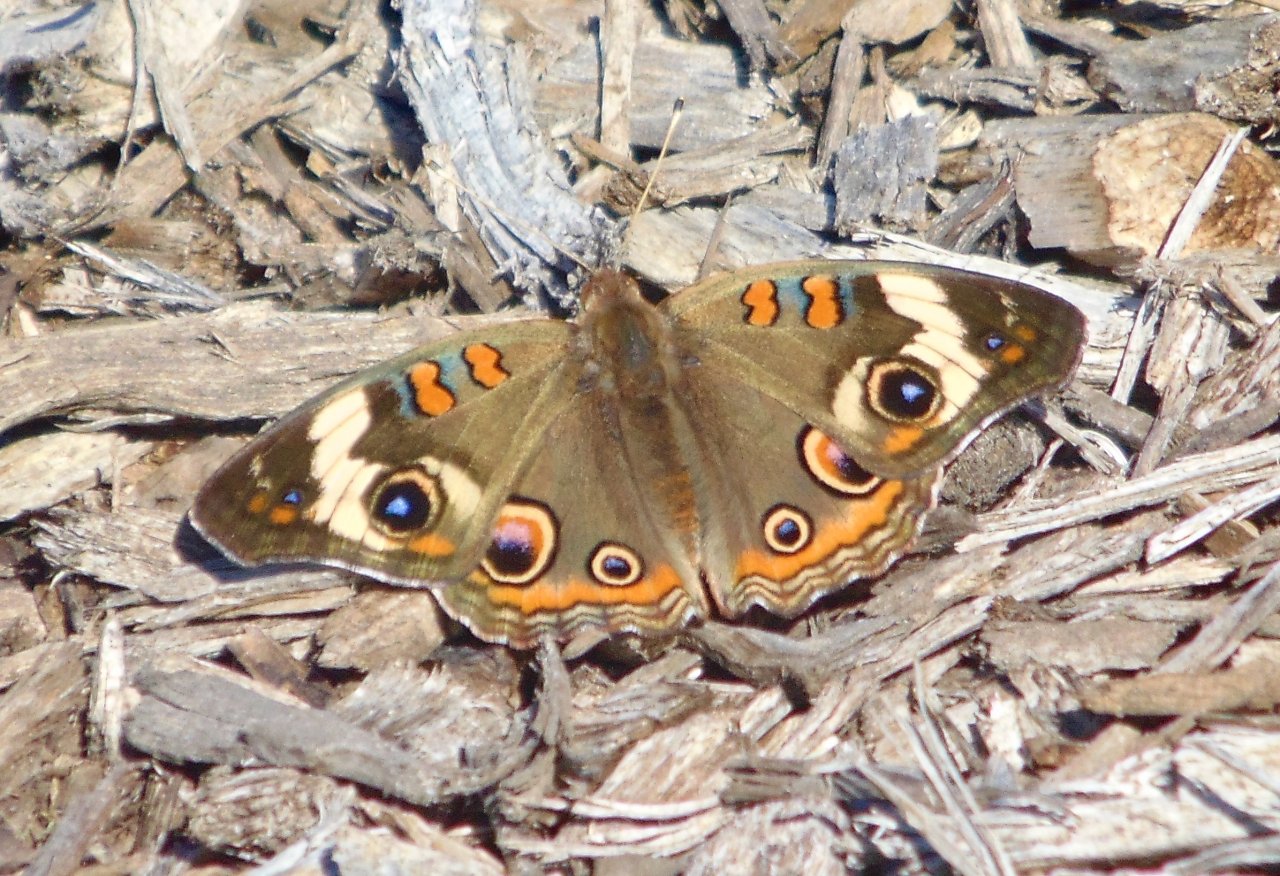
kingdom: Animalia
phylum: Arthropoda
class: Insecta
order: Lepidoptera
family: Nymphalidae
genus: Junonia
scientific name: Junonia coenia
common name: Common Buckeye
